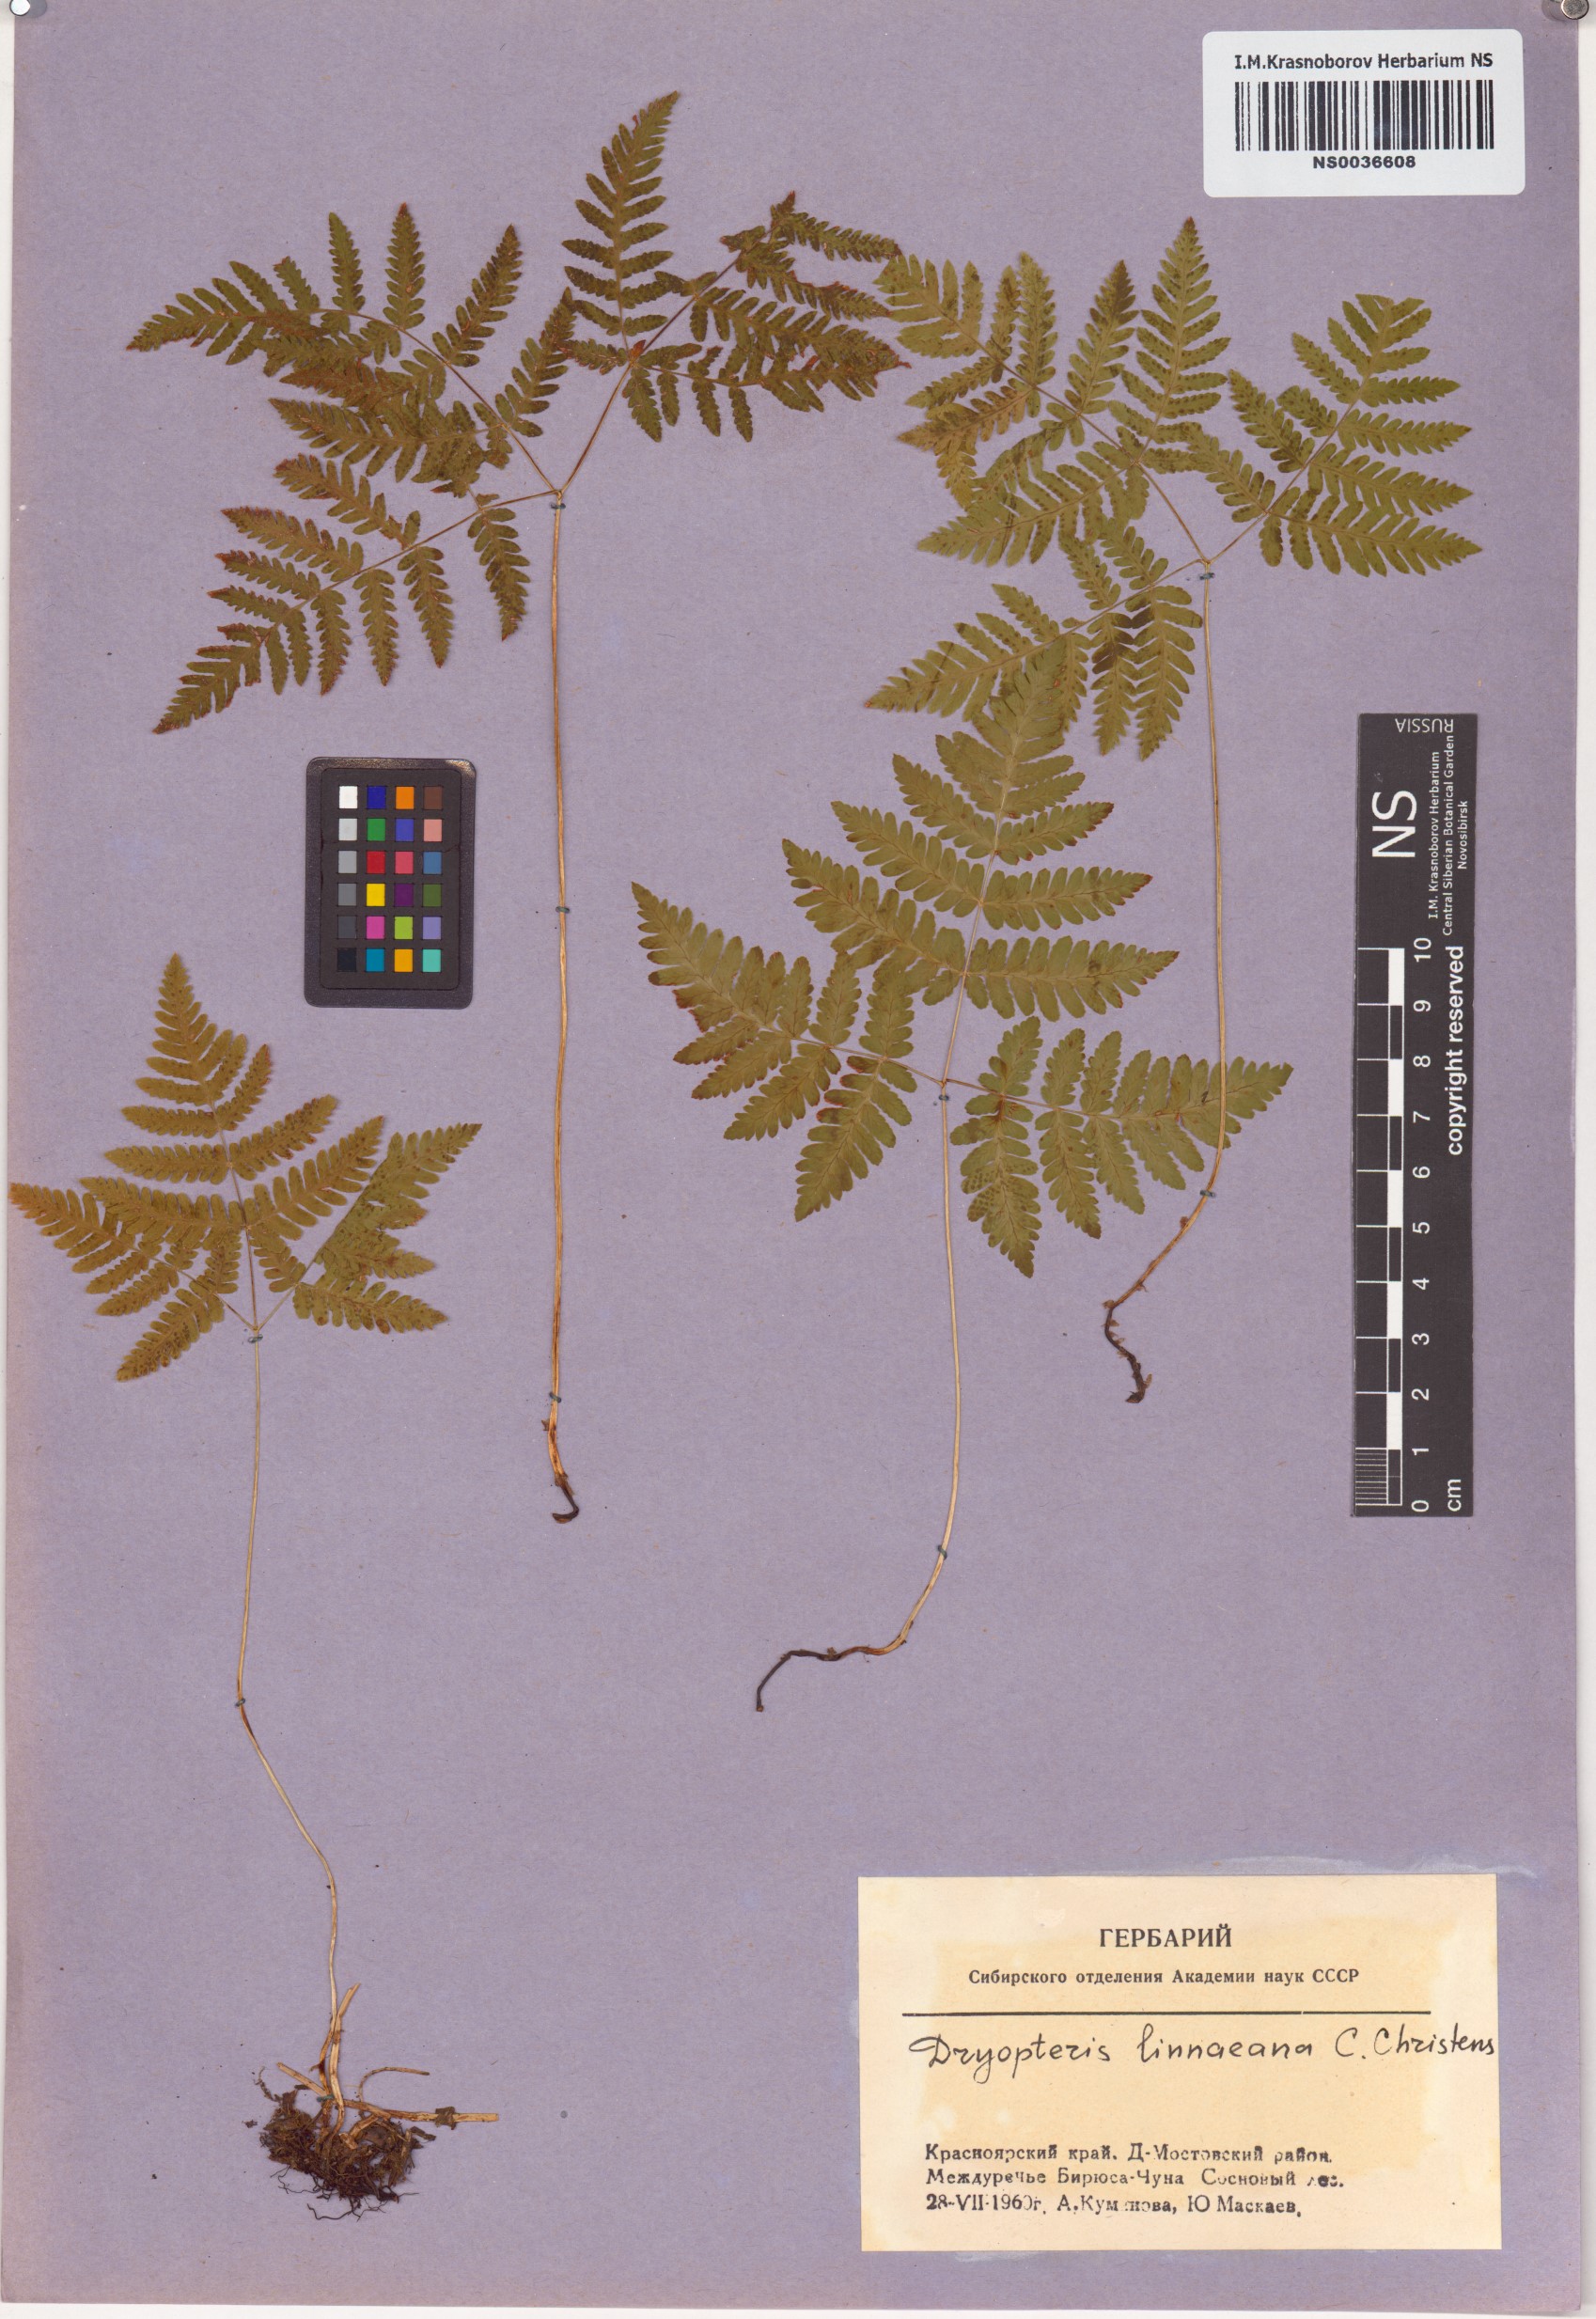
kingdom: Plantae
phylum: Tracheophyta
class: Polypodiopsida
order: Polypodiales
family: Cystopteridaceae
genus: Gymnocarpium
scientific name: Gymnocarpium dryopteris
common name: Oak fern
